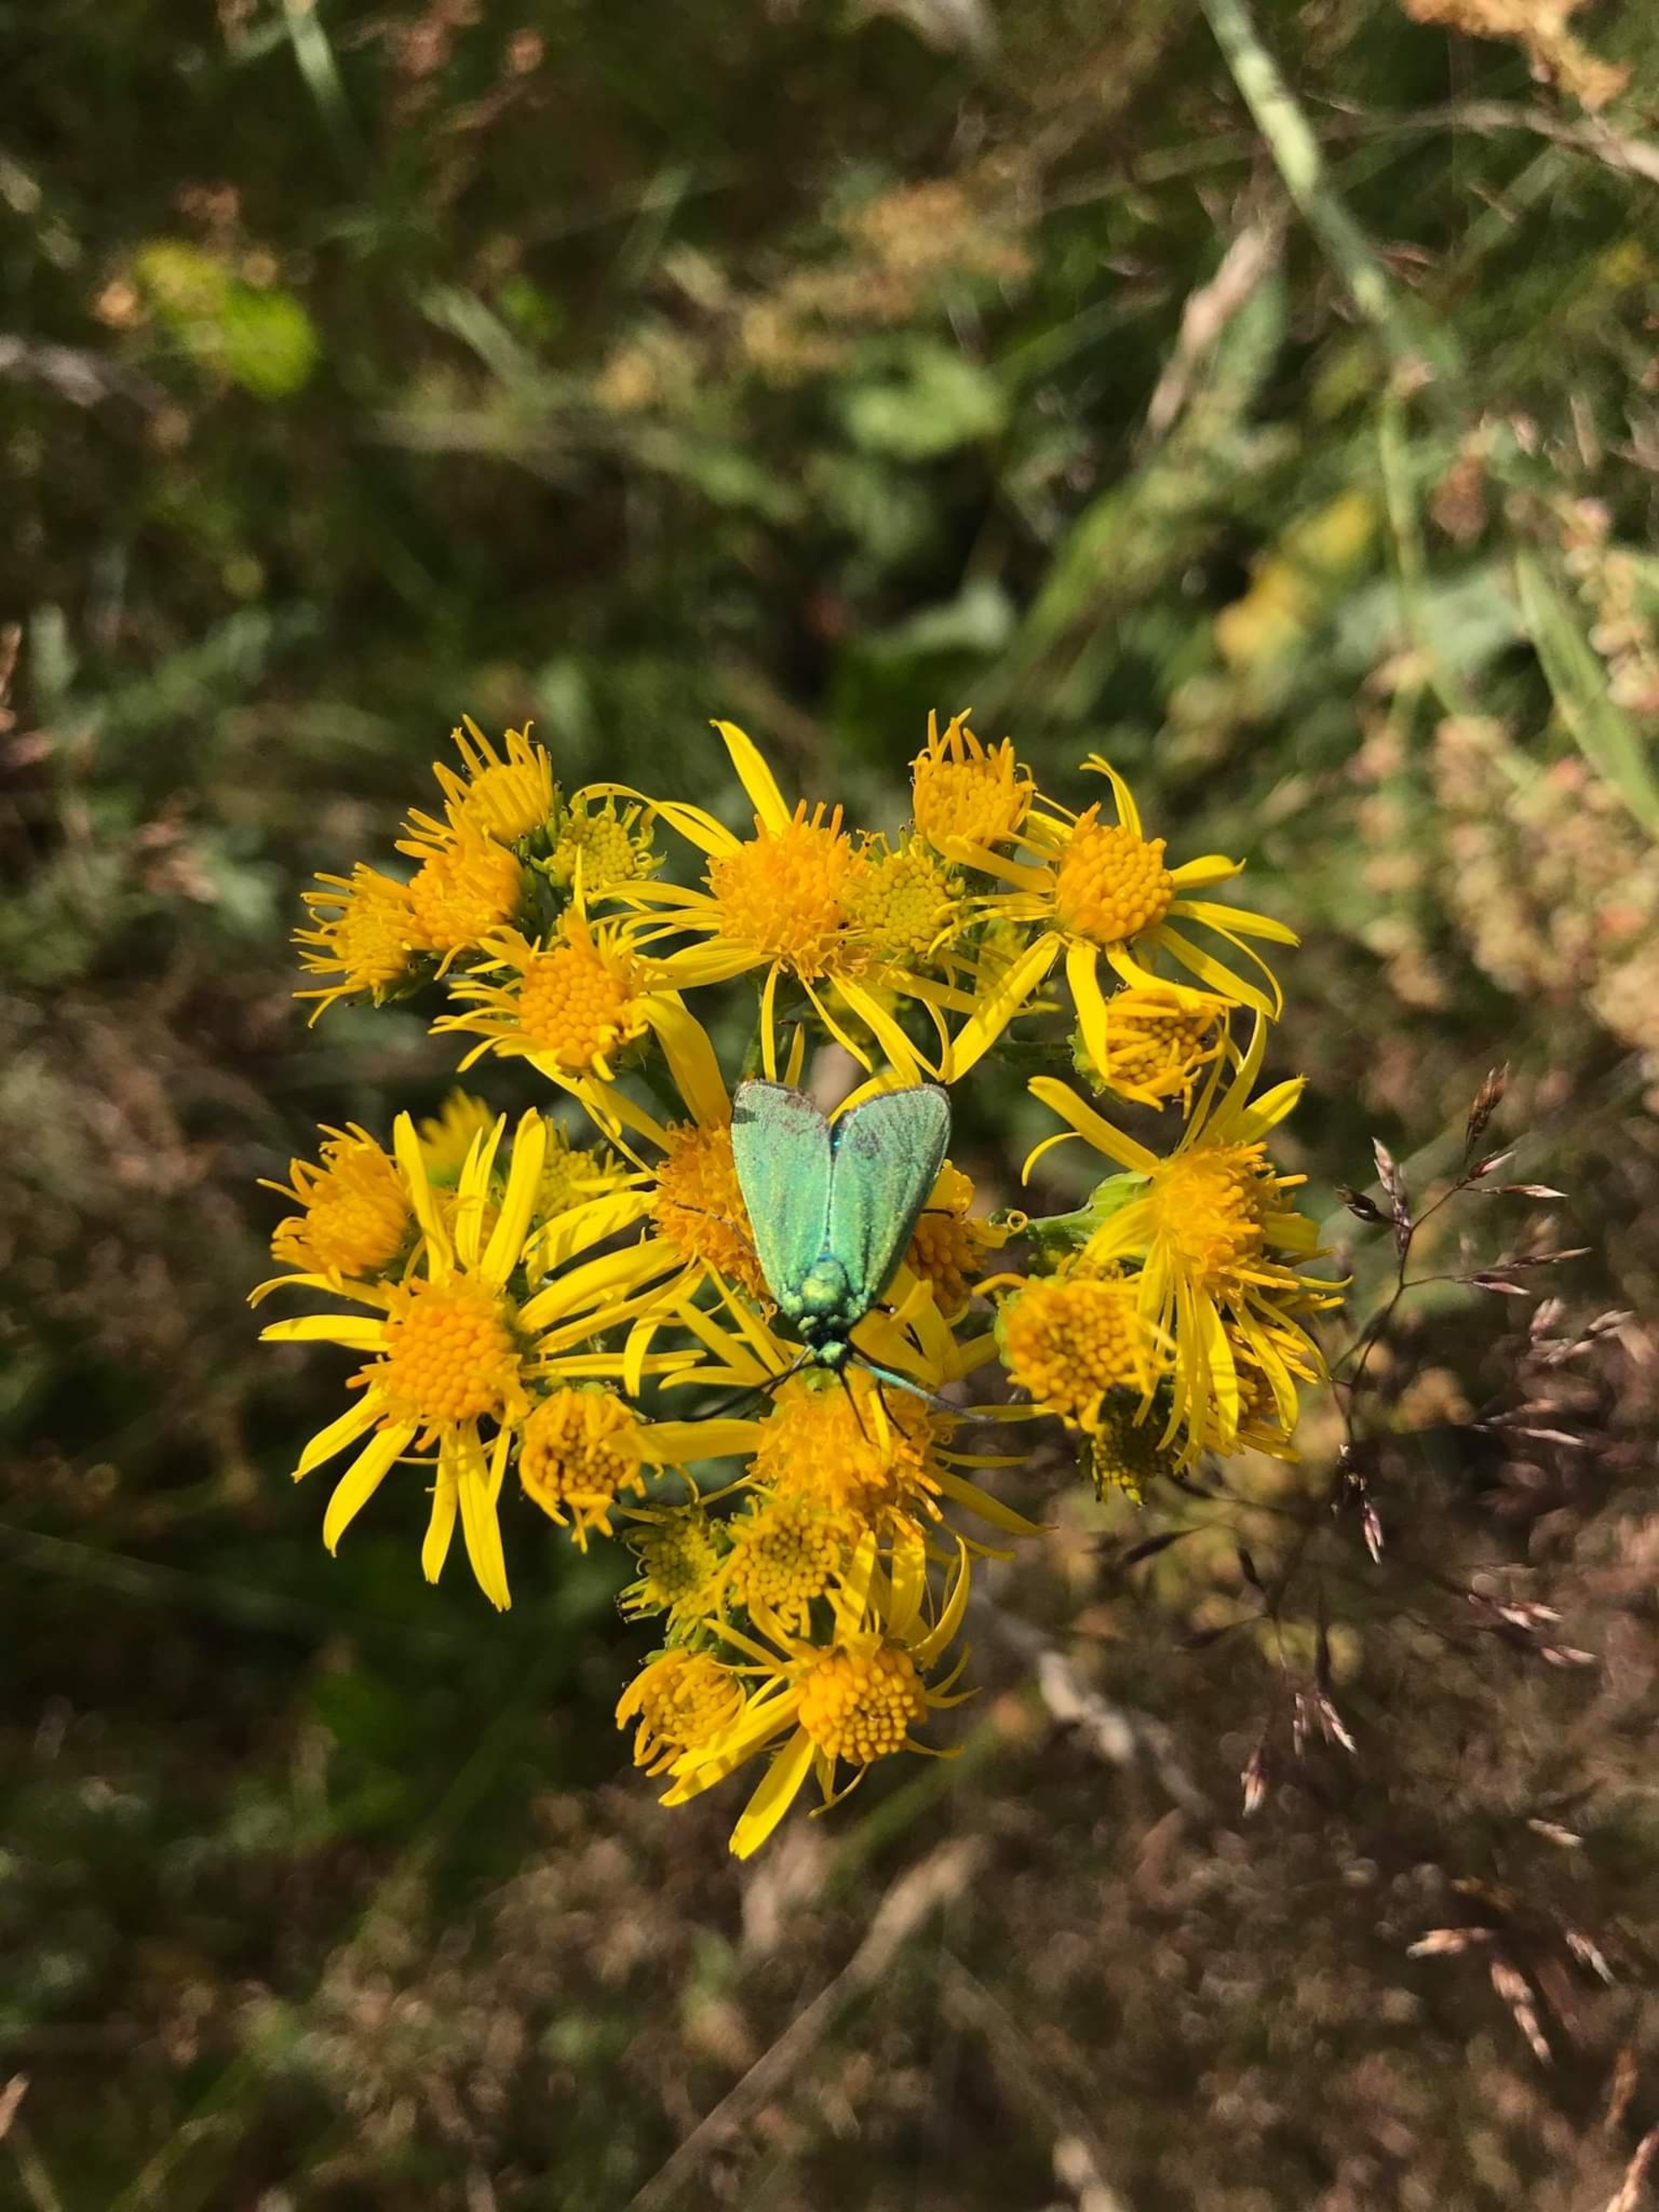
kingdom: Animalia
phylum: Arthropoda
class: Insecta
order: Lepidoptera
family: Zygaenidae
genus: Adscita
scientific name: Adscita statices
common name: Metalvinge
